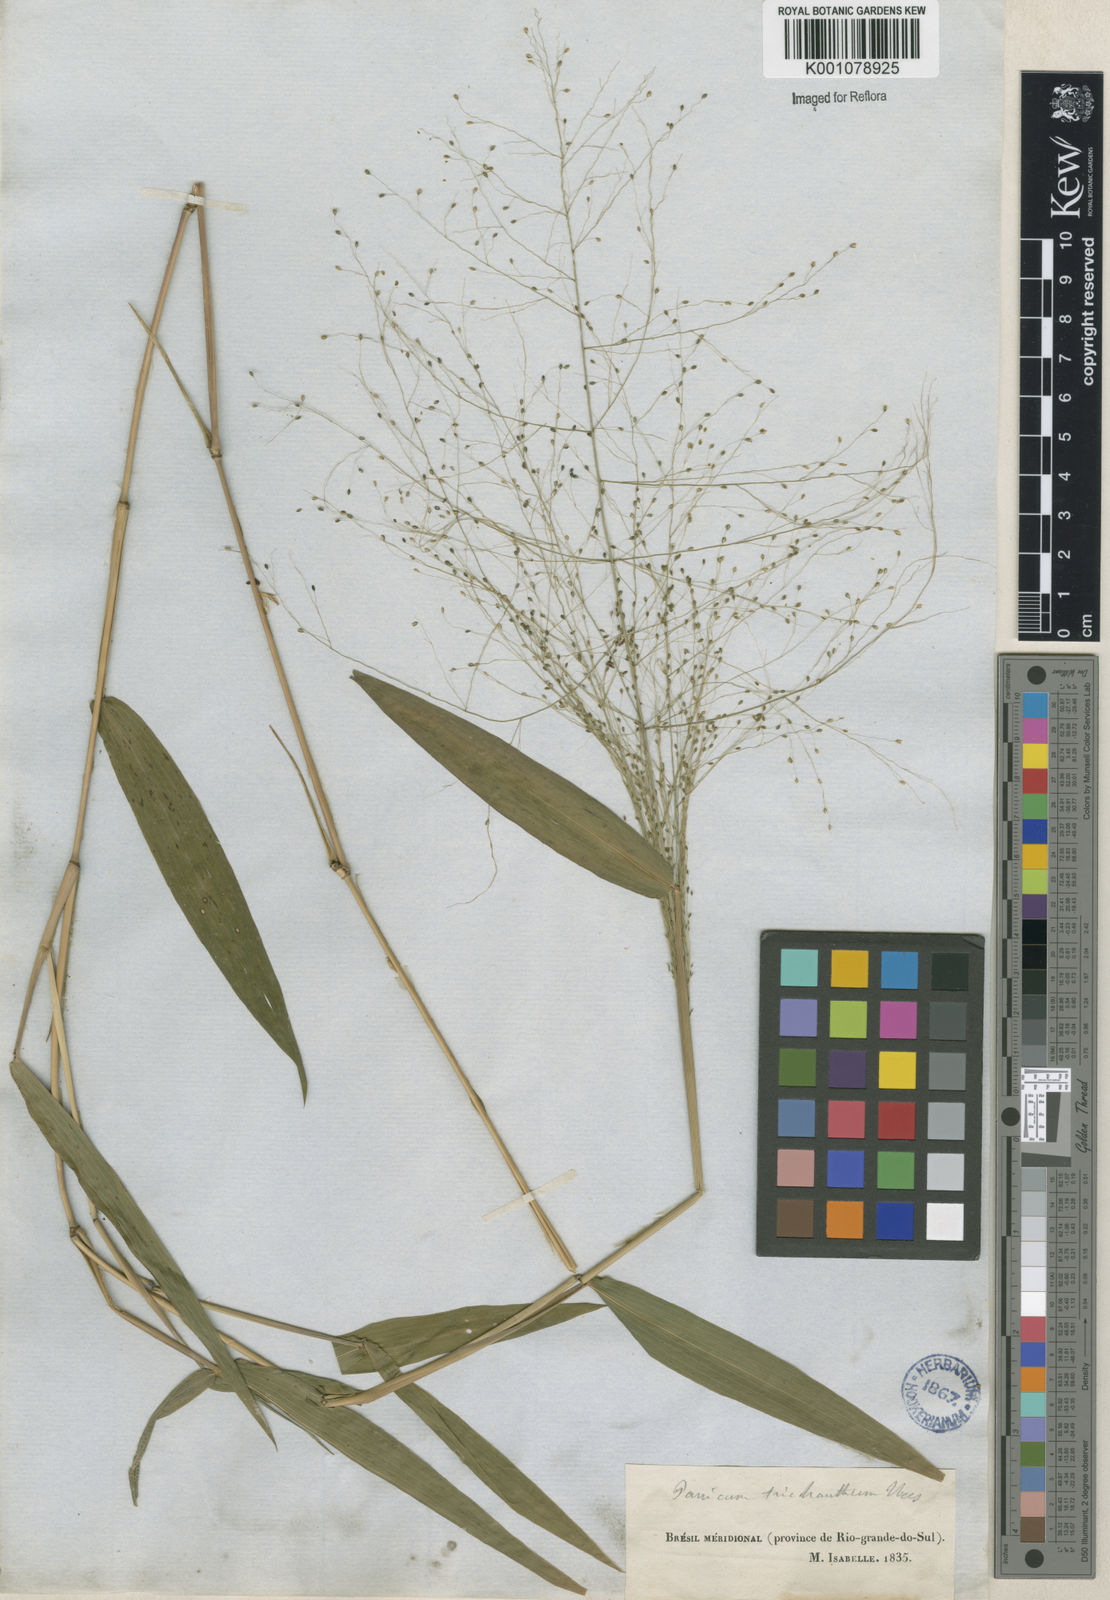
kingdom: Plantae
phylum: Tracheophyta
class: Liliopsida
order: Poales
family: Poaceae
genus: Panicum
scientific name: Panicum
